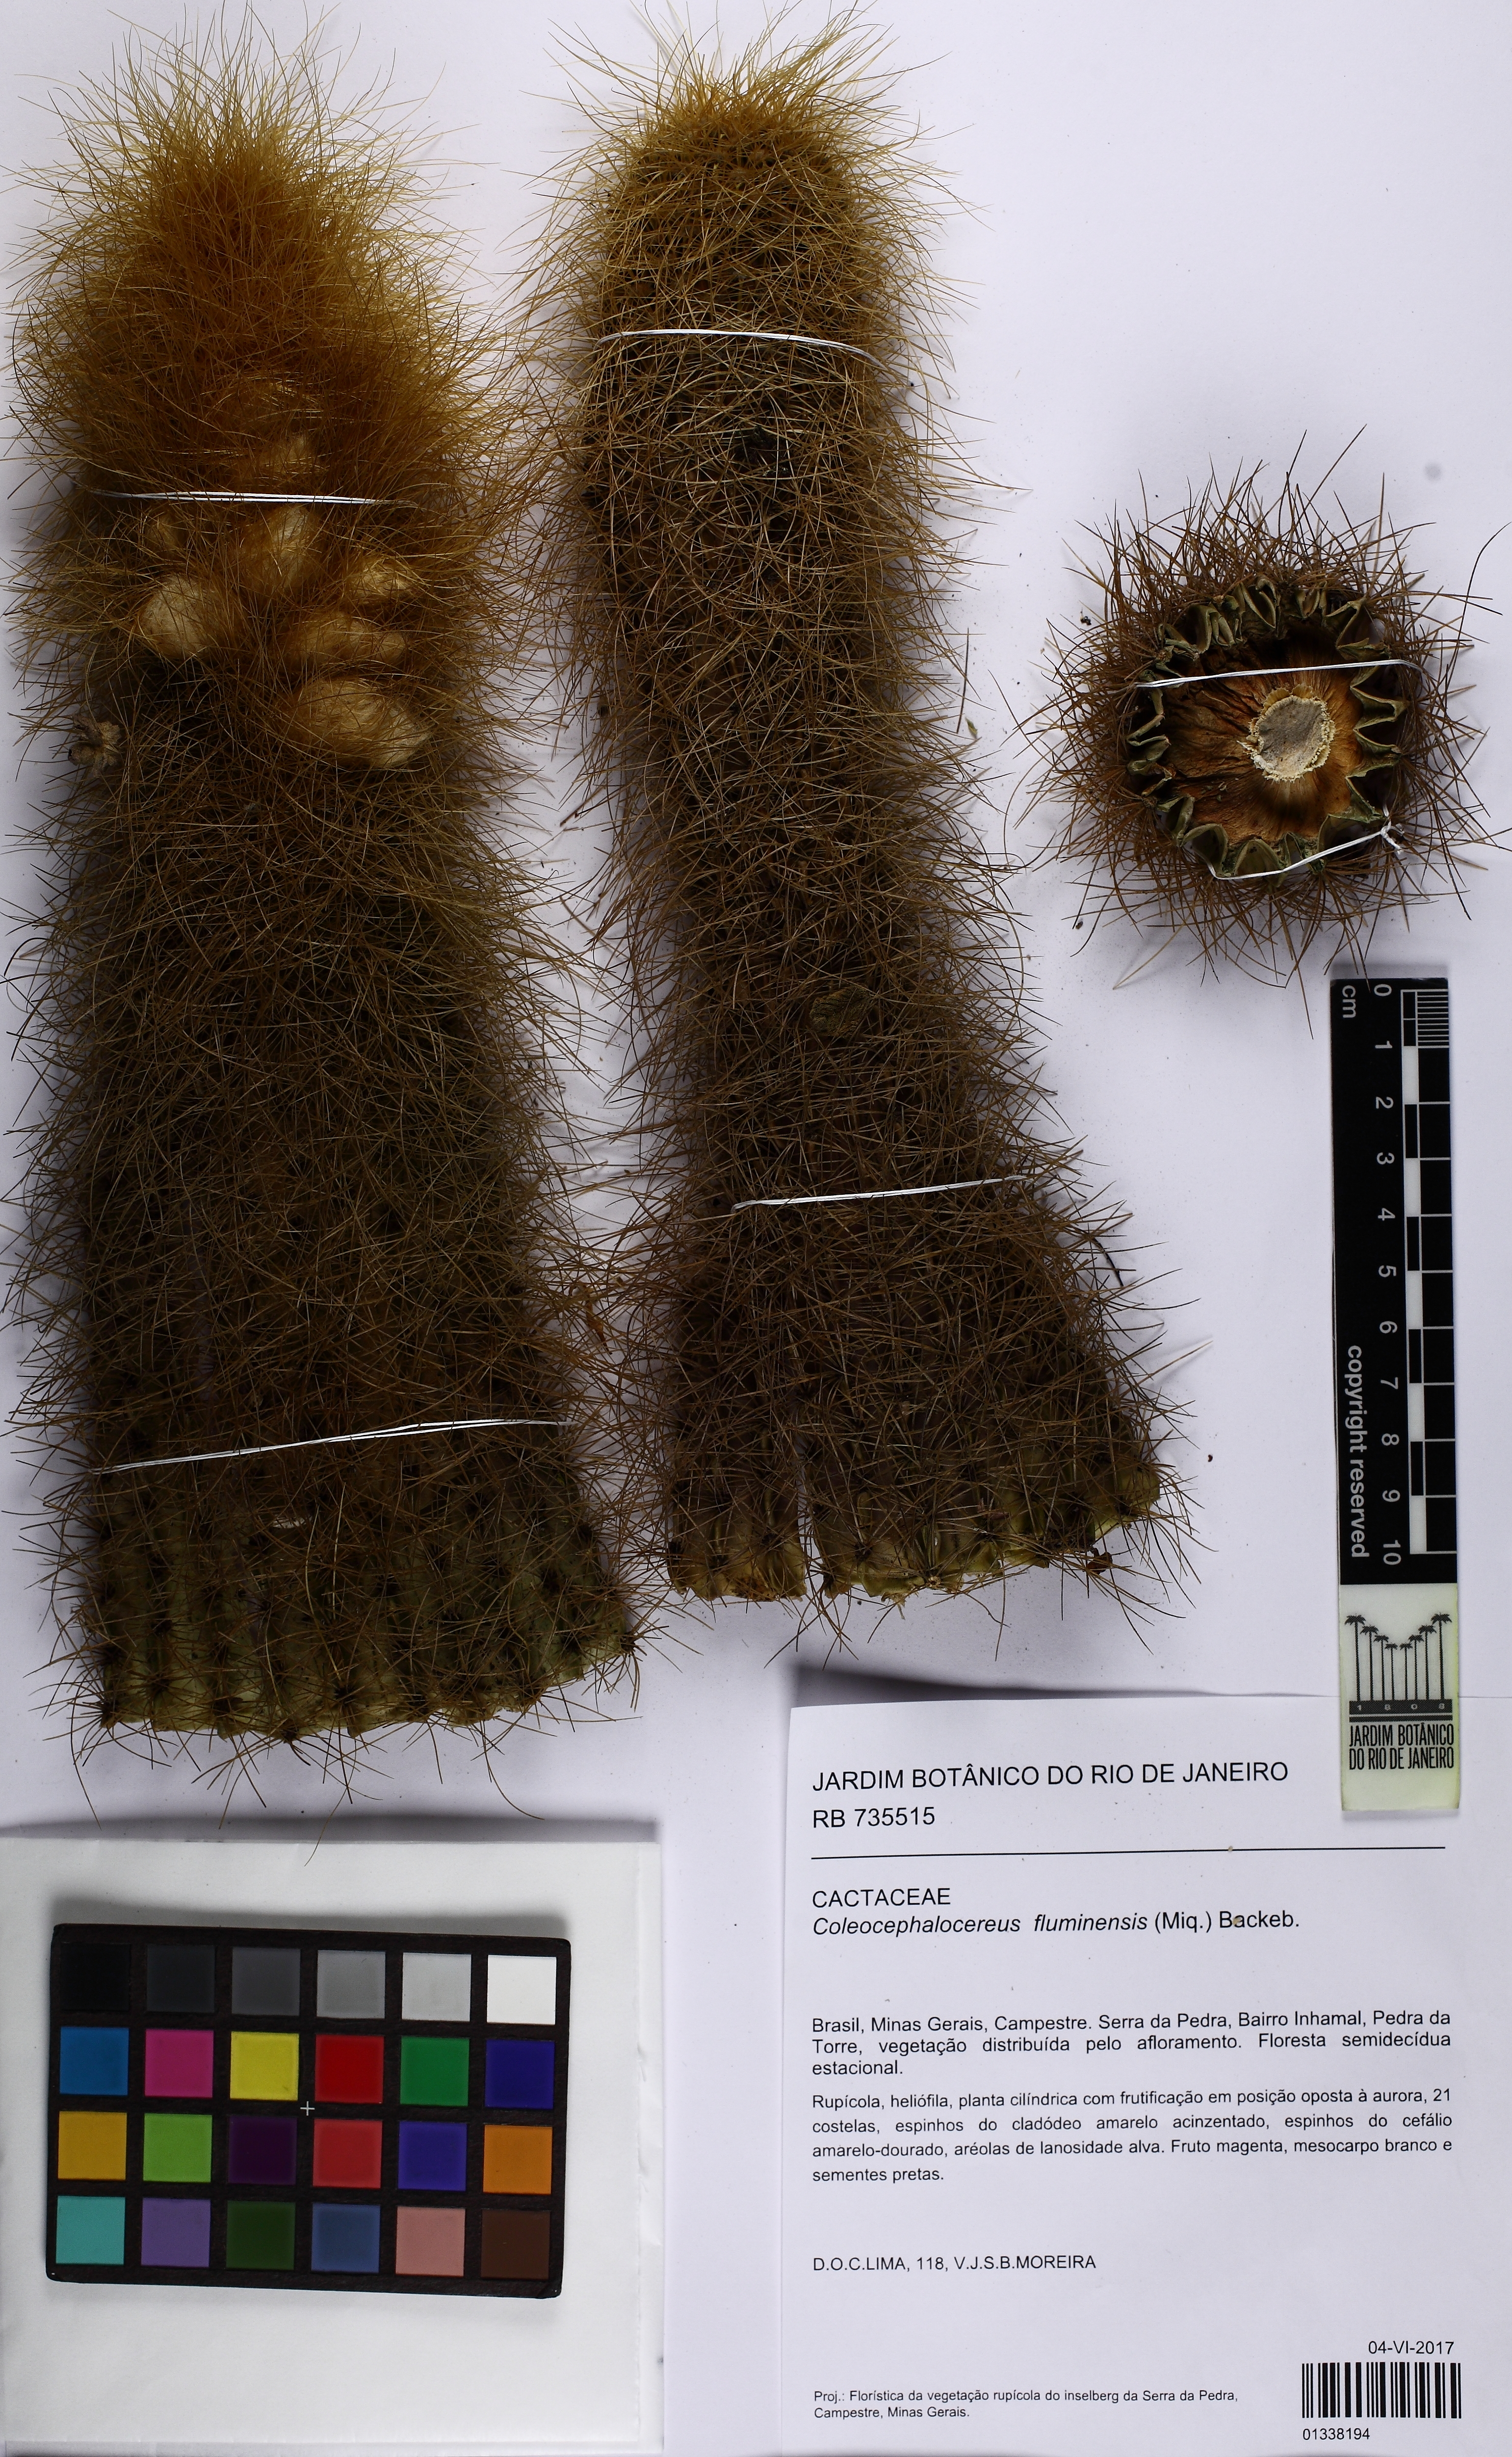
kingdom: Plantae
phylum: Tracheophyta
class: Magnoliopsida
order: Caryophyllales
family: Cactaceae
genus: Coleocephalocereus
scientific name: Coleocephalocereus fluminensis
